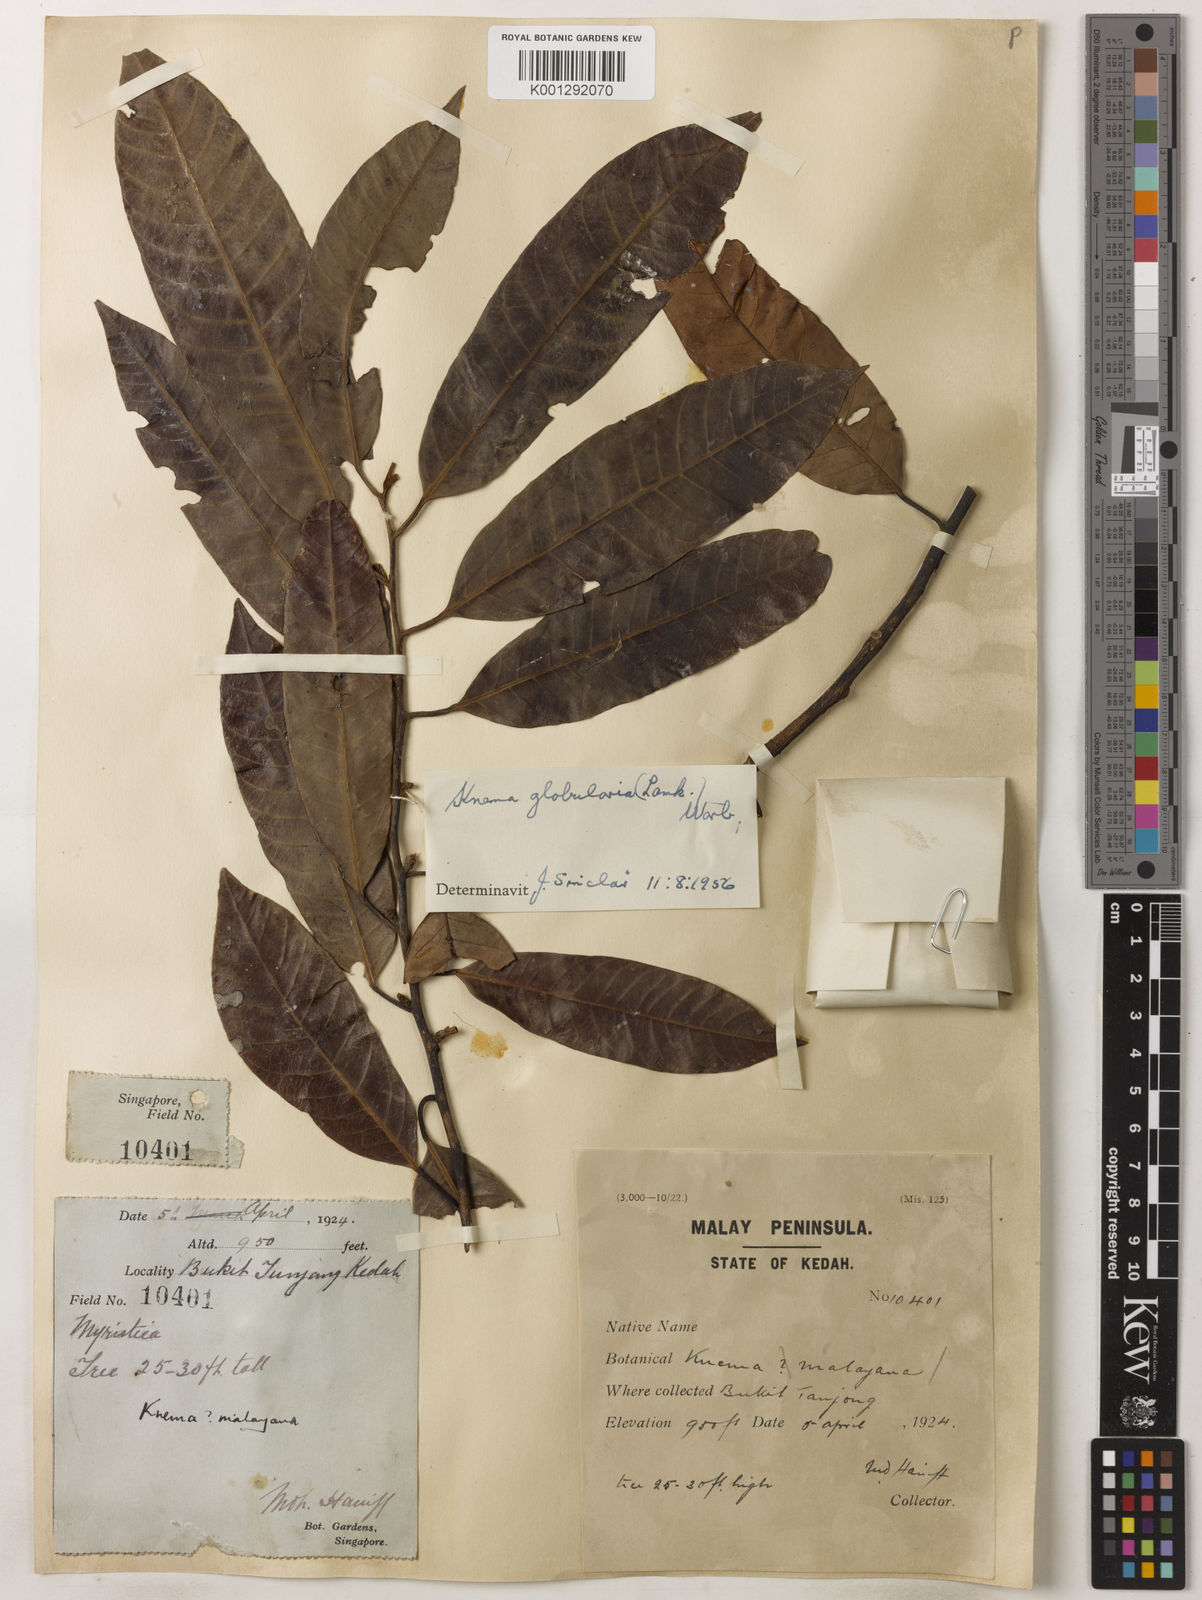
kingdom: Plantae
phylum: Tracheophyta
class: Magnoliopsida
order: Magnoliales
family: Myristicaceae
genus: Knema
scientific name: Knema globularia
